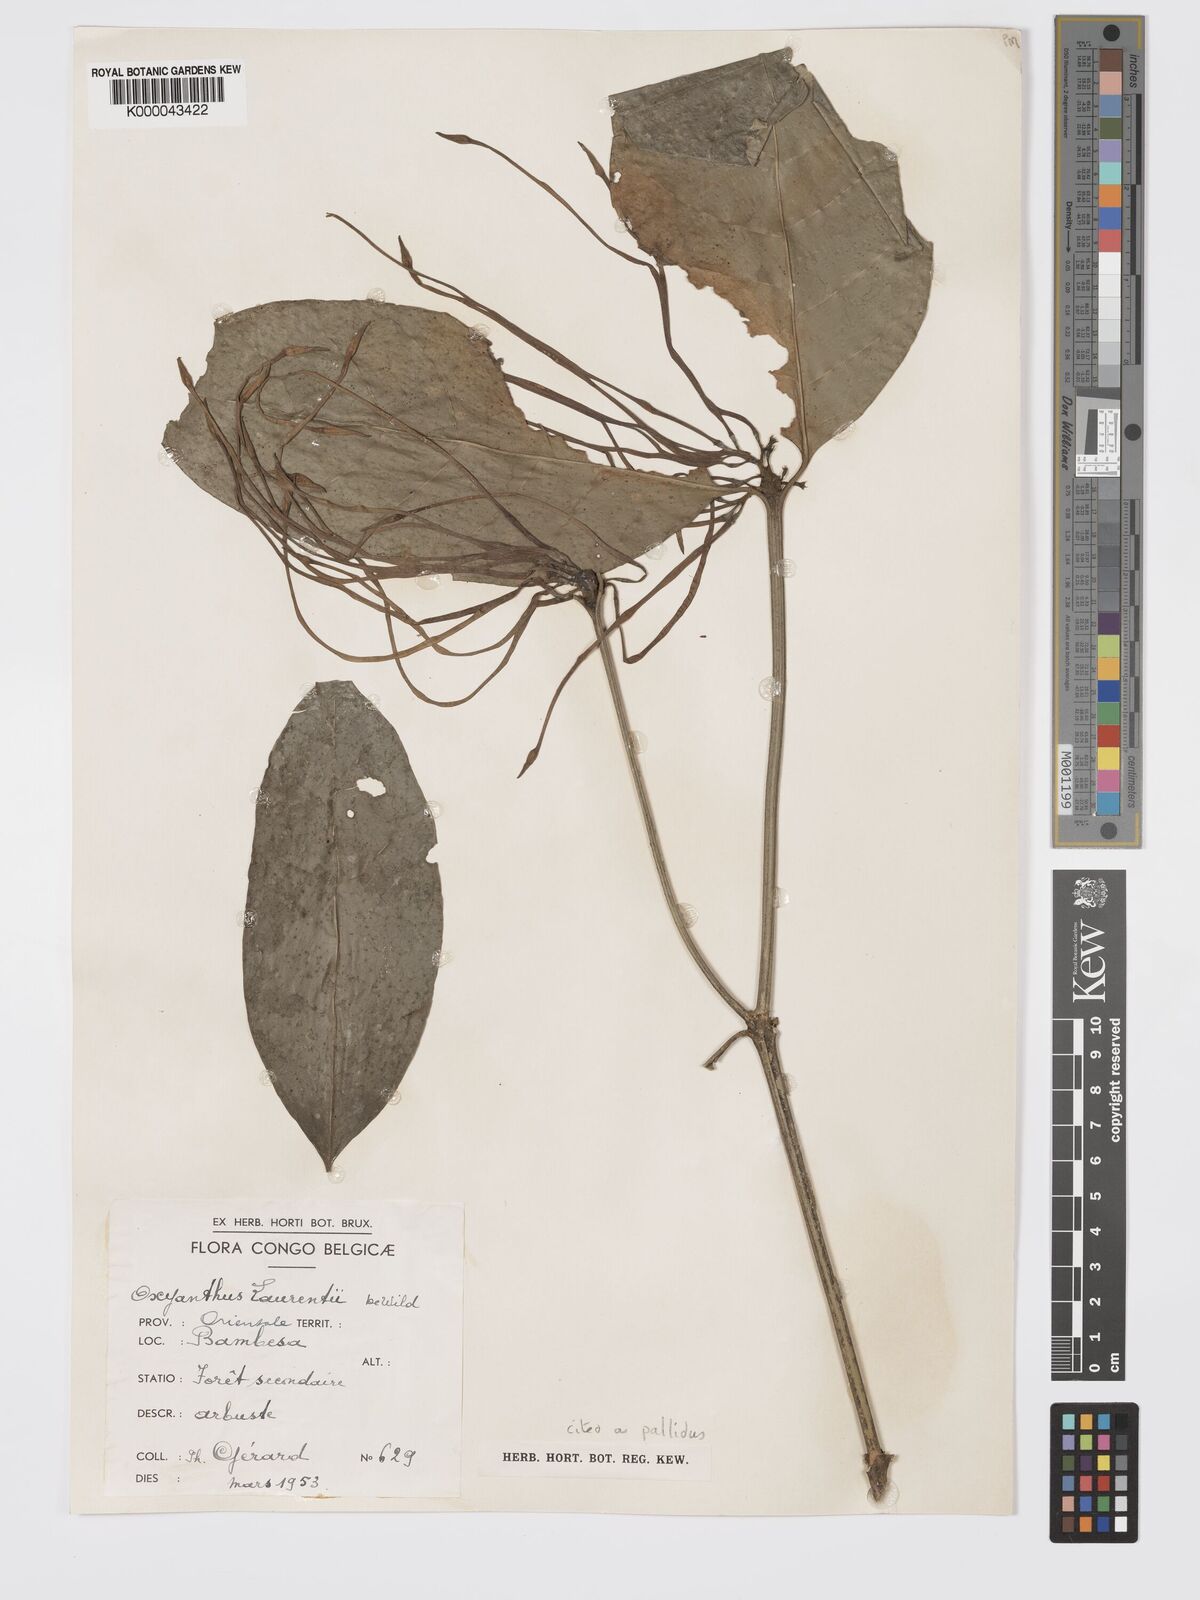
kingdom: Plantae
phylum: Tracheophyta
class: Magnoliopsida
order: Gentianales
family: Rubiaceae
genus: Oxyanthus
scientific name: Oxyanthus pallidus
